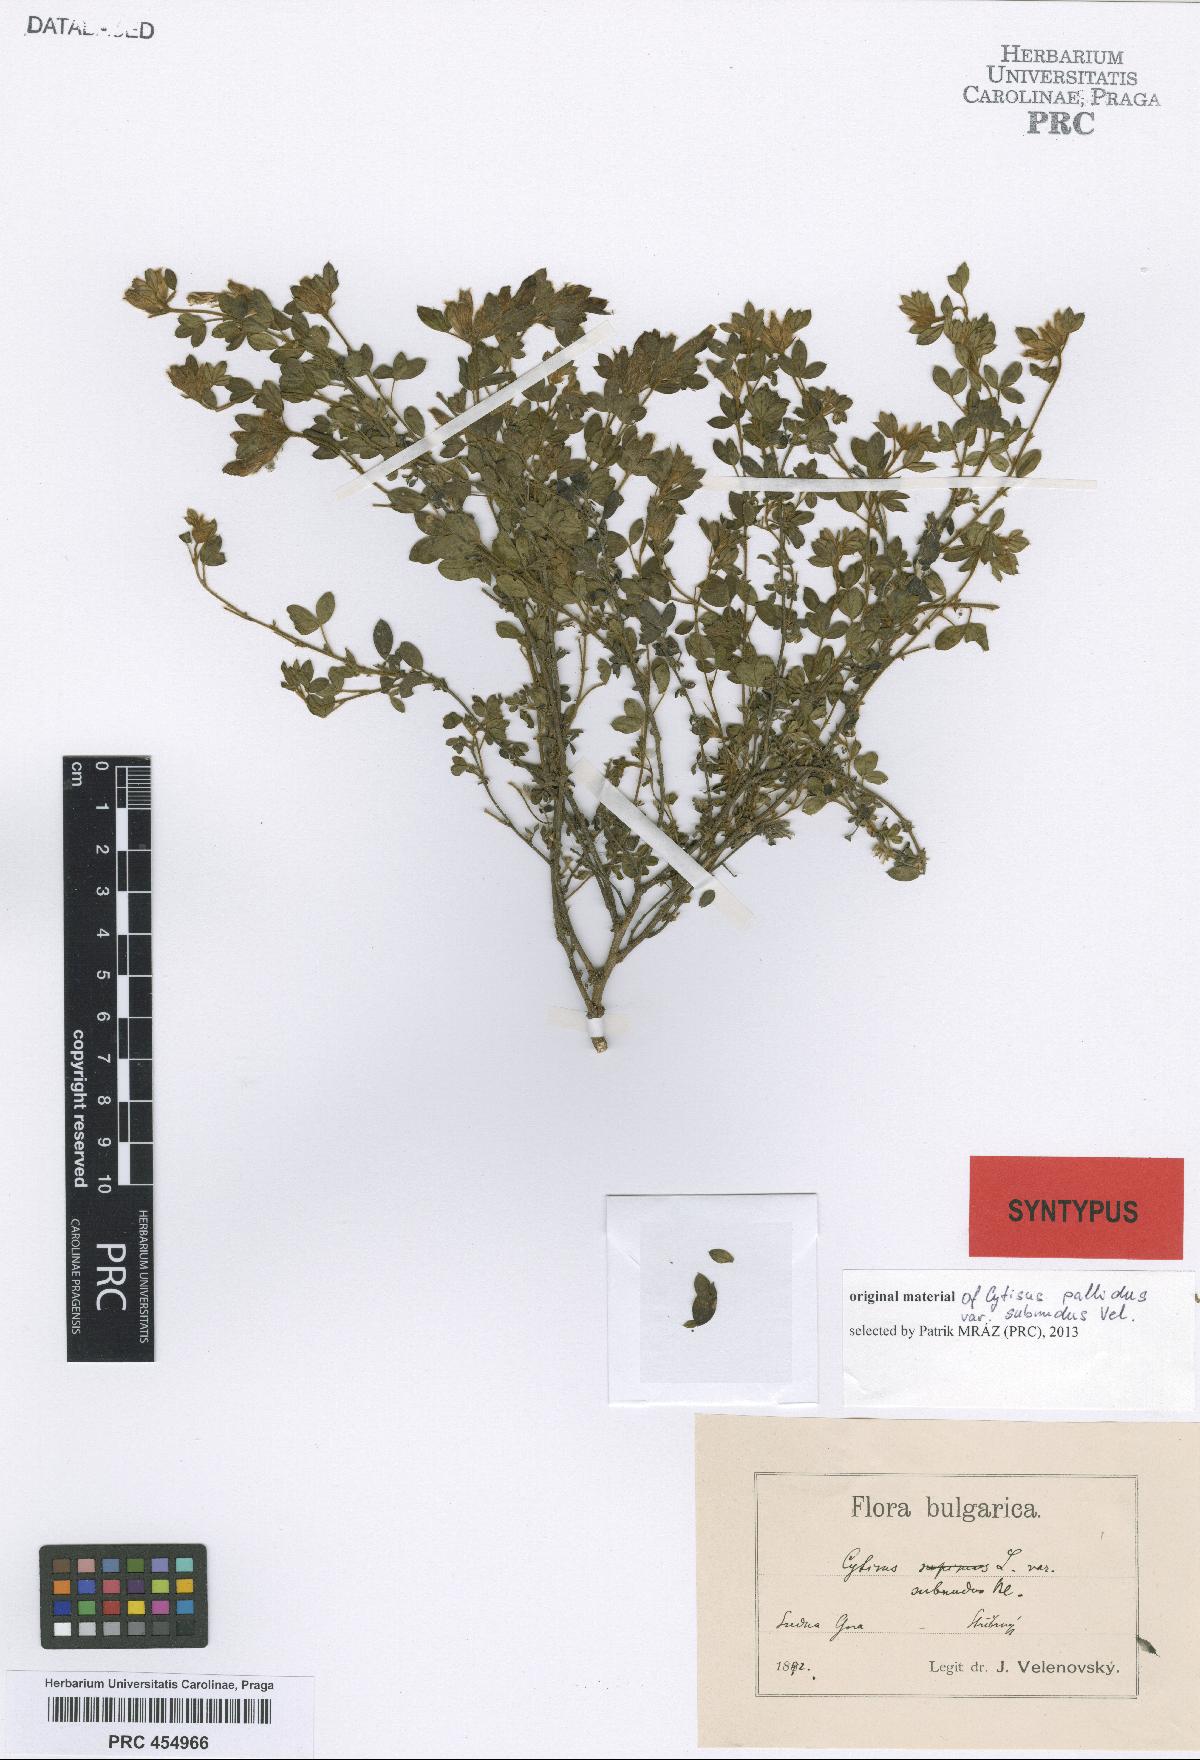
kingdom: Plantae
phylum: Tracheophyta
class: Magnoliopsida
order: Fabales
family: Fabaceae
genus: Chamaecytisus
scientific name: Chamaecytisus banaticus
